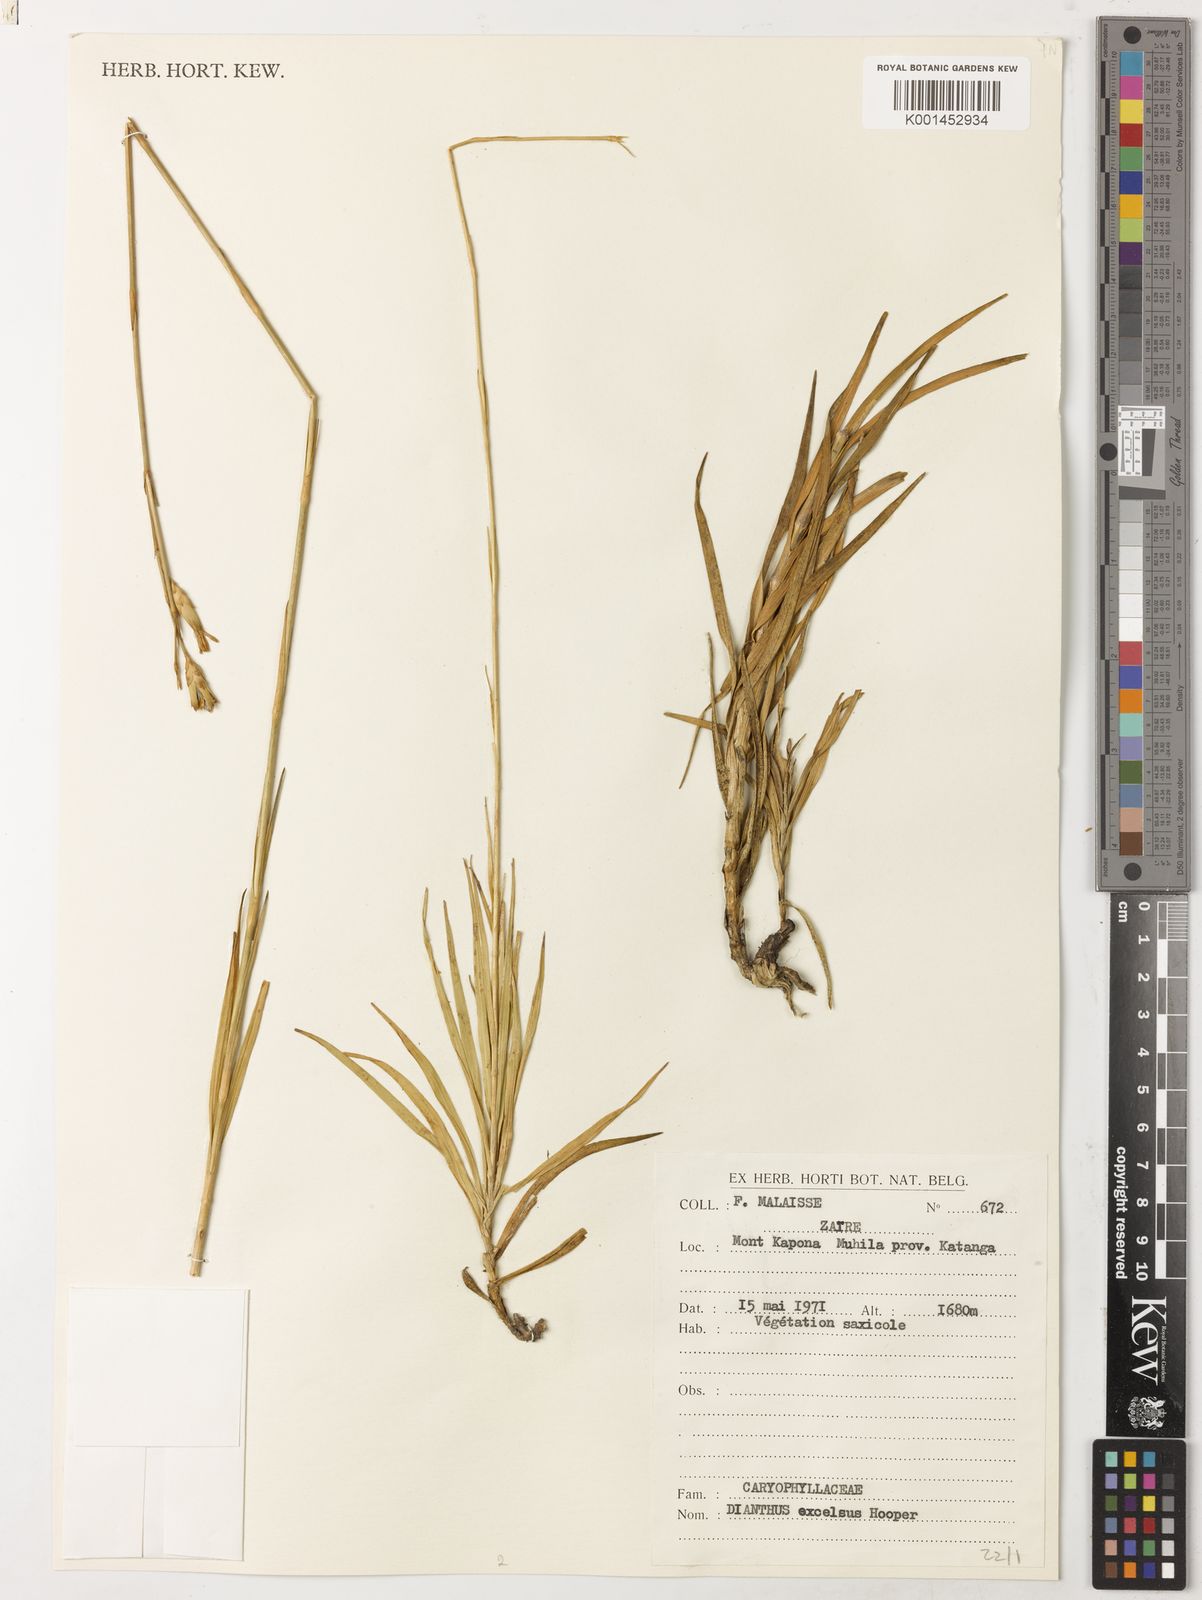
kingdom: Plantae
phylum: Tracheophyta
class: Magnoliopsida
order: Caryophyllales
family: Caryophyllaceae
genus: Dianthus
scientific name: Dianthus excelsus
